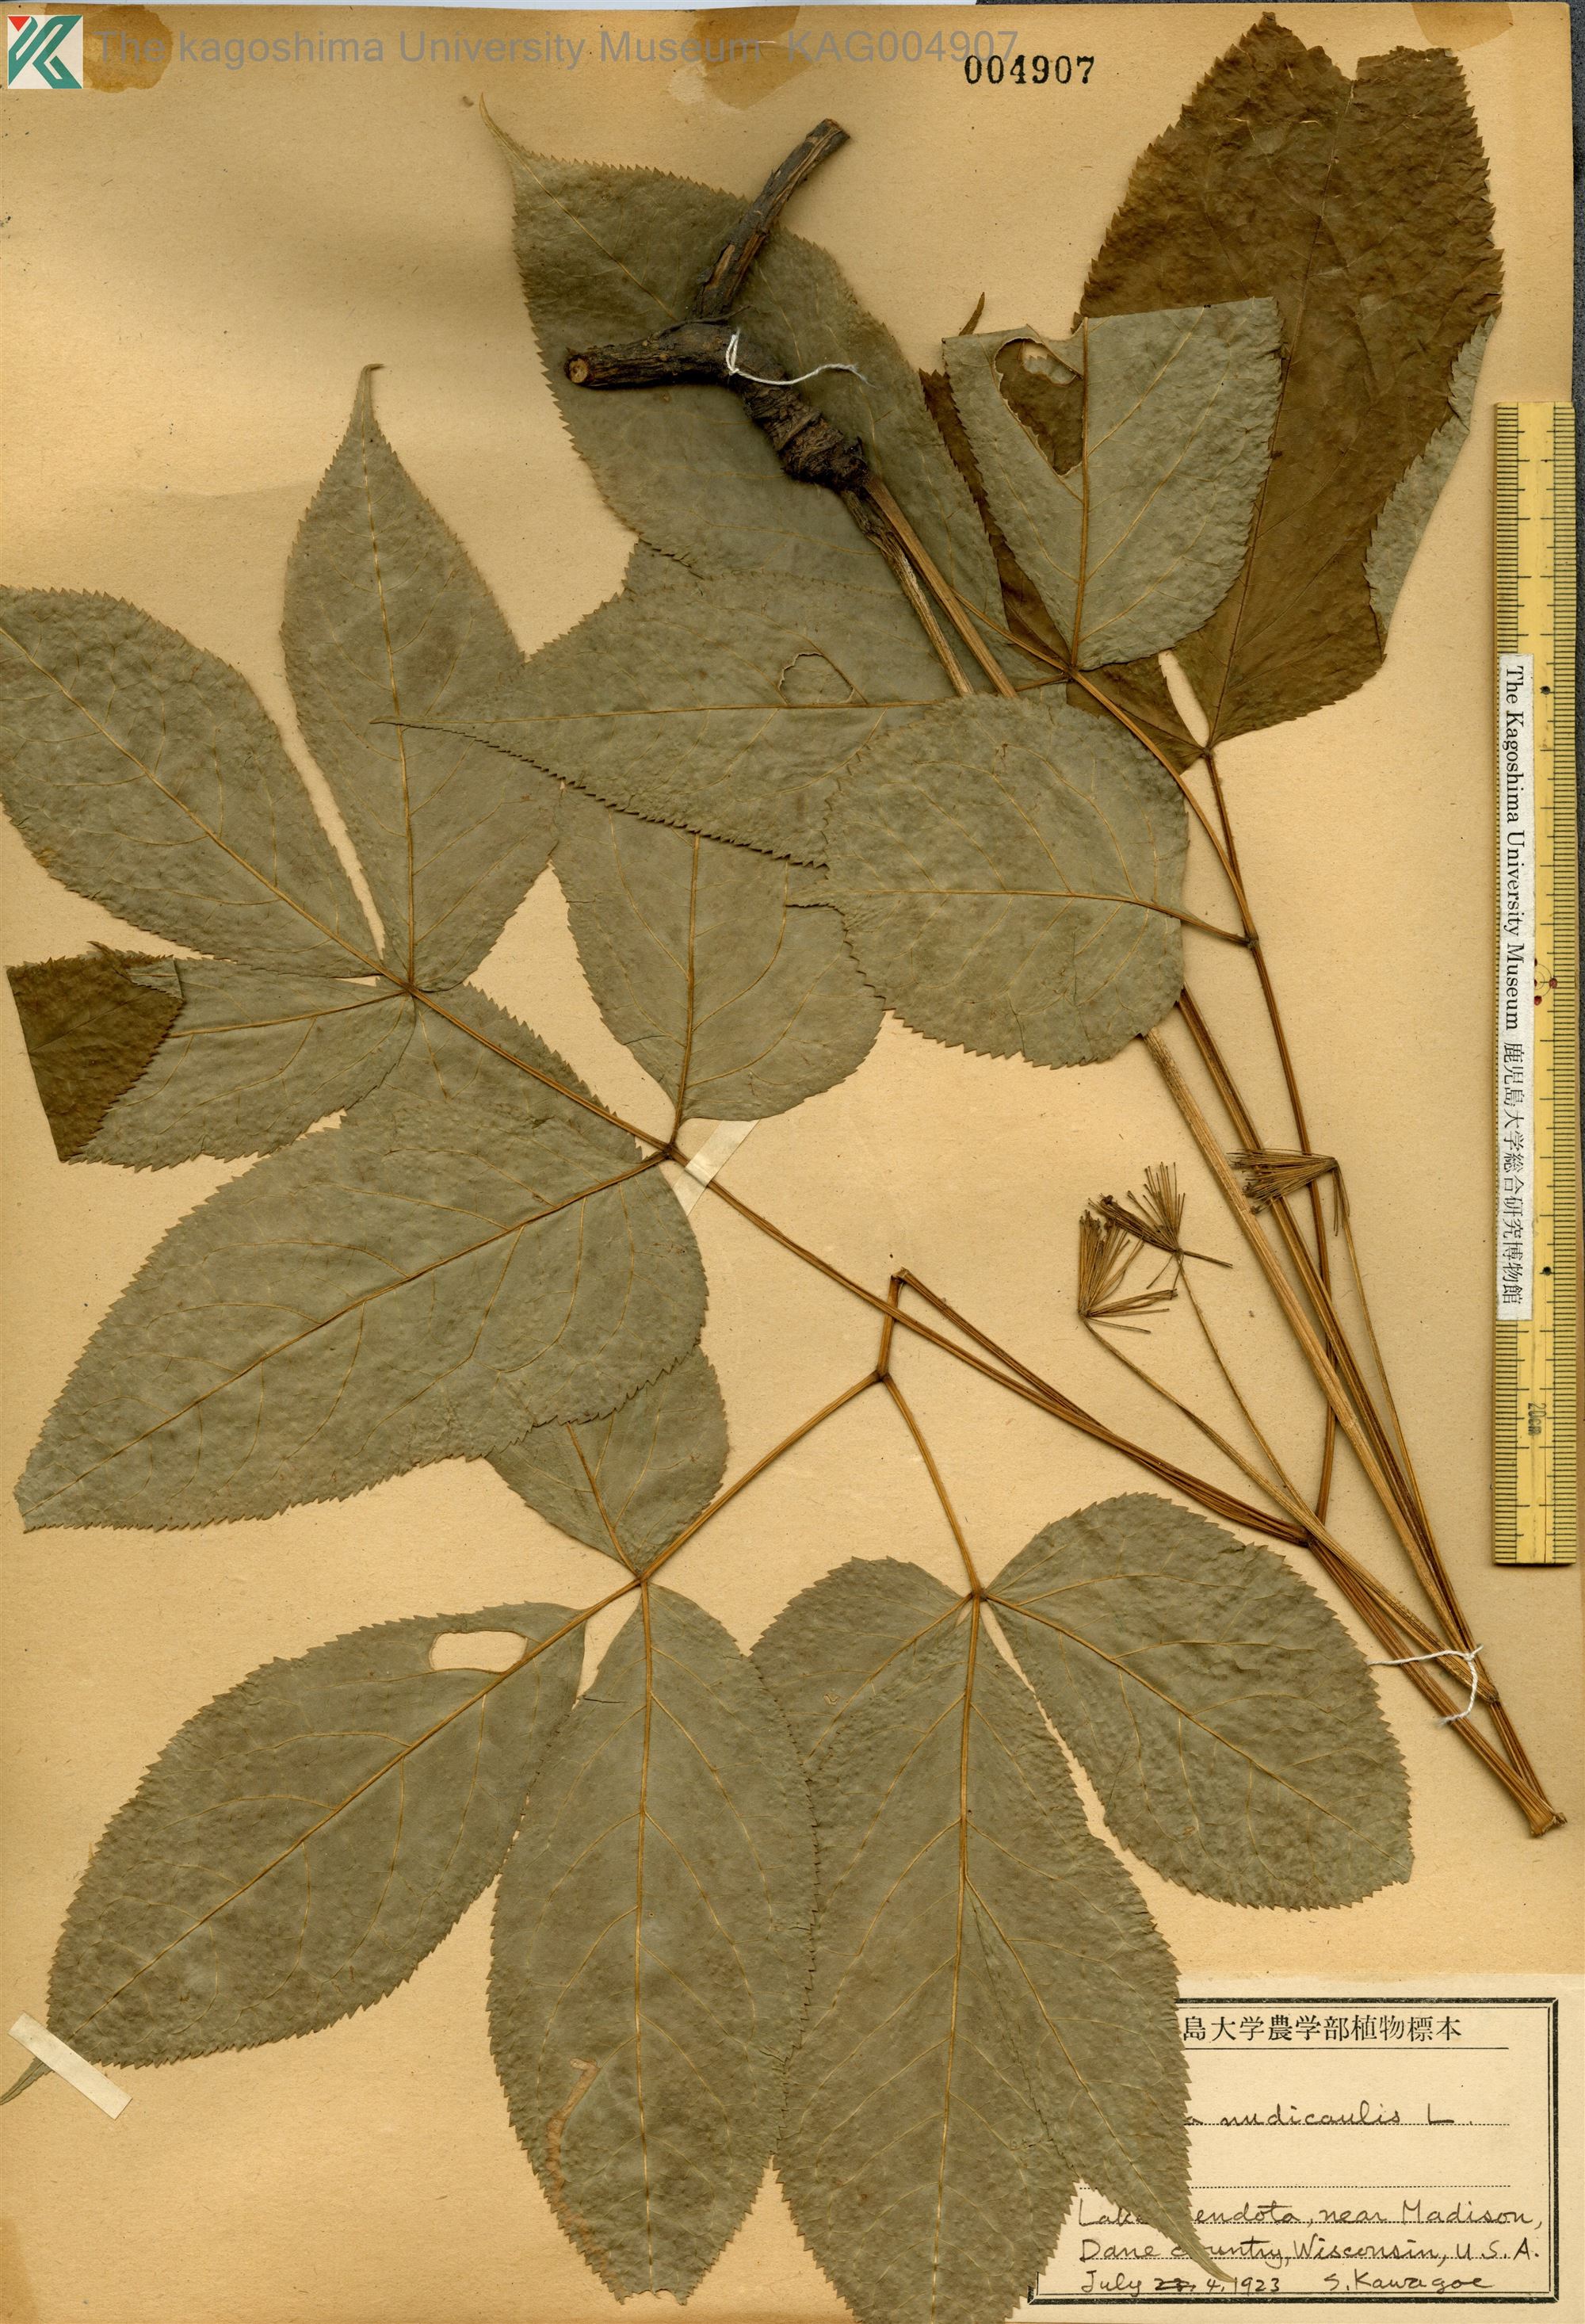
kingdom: Plantae
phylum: Tracheophyta
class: Magnoliopsida
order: Apiales
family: Araliaceae
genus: Aralia
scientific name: Aralia nudicaulis
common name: Wild sarsaparilla
